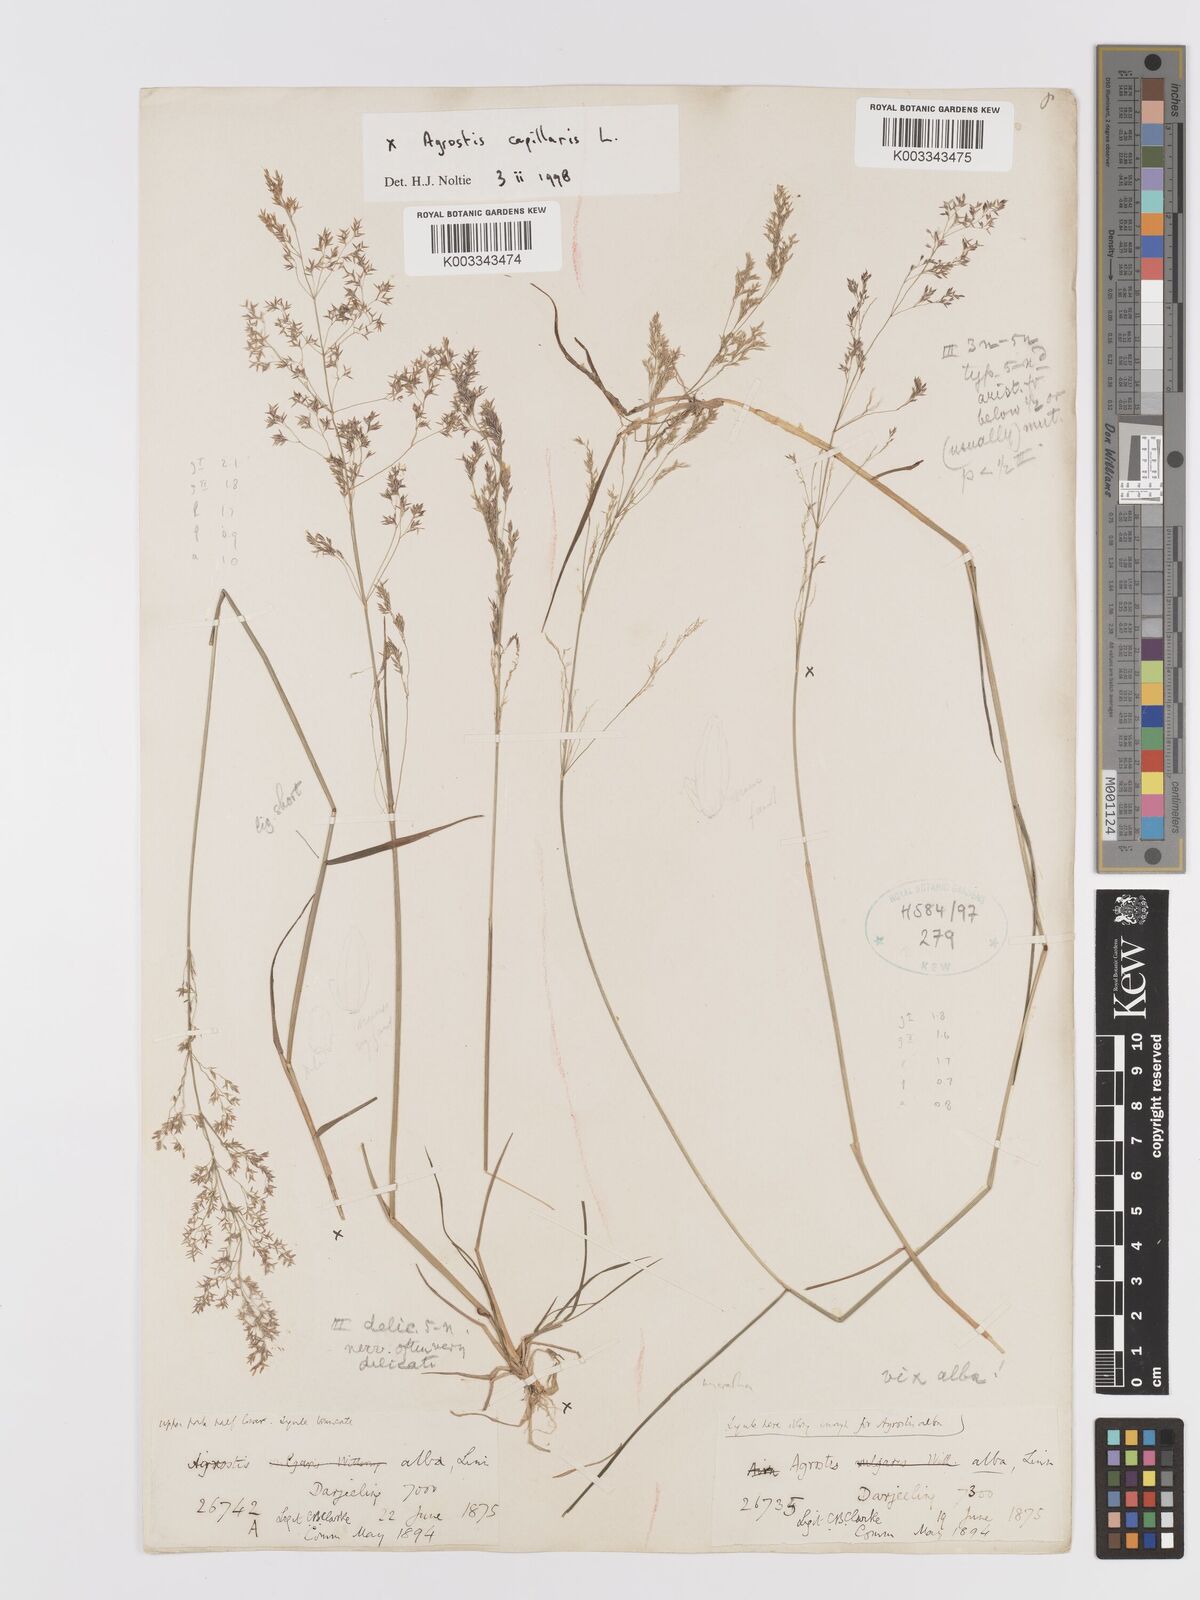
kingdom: Plantae
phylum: Tracheophyta
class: Liliopsida
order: Poales
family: Poaceae
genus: Agrostis
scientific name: Agrostis capillaris
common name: Colonial bentgrass
